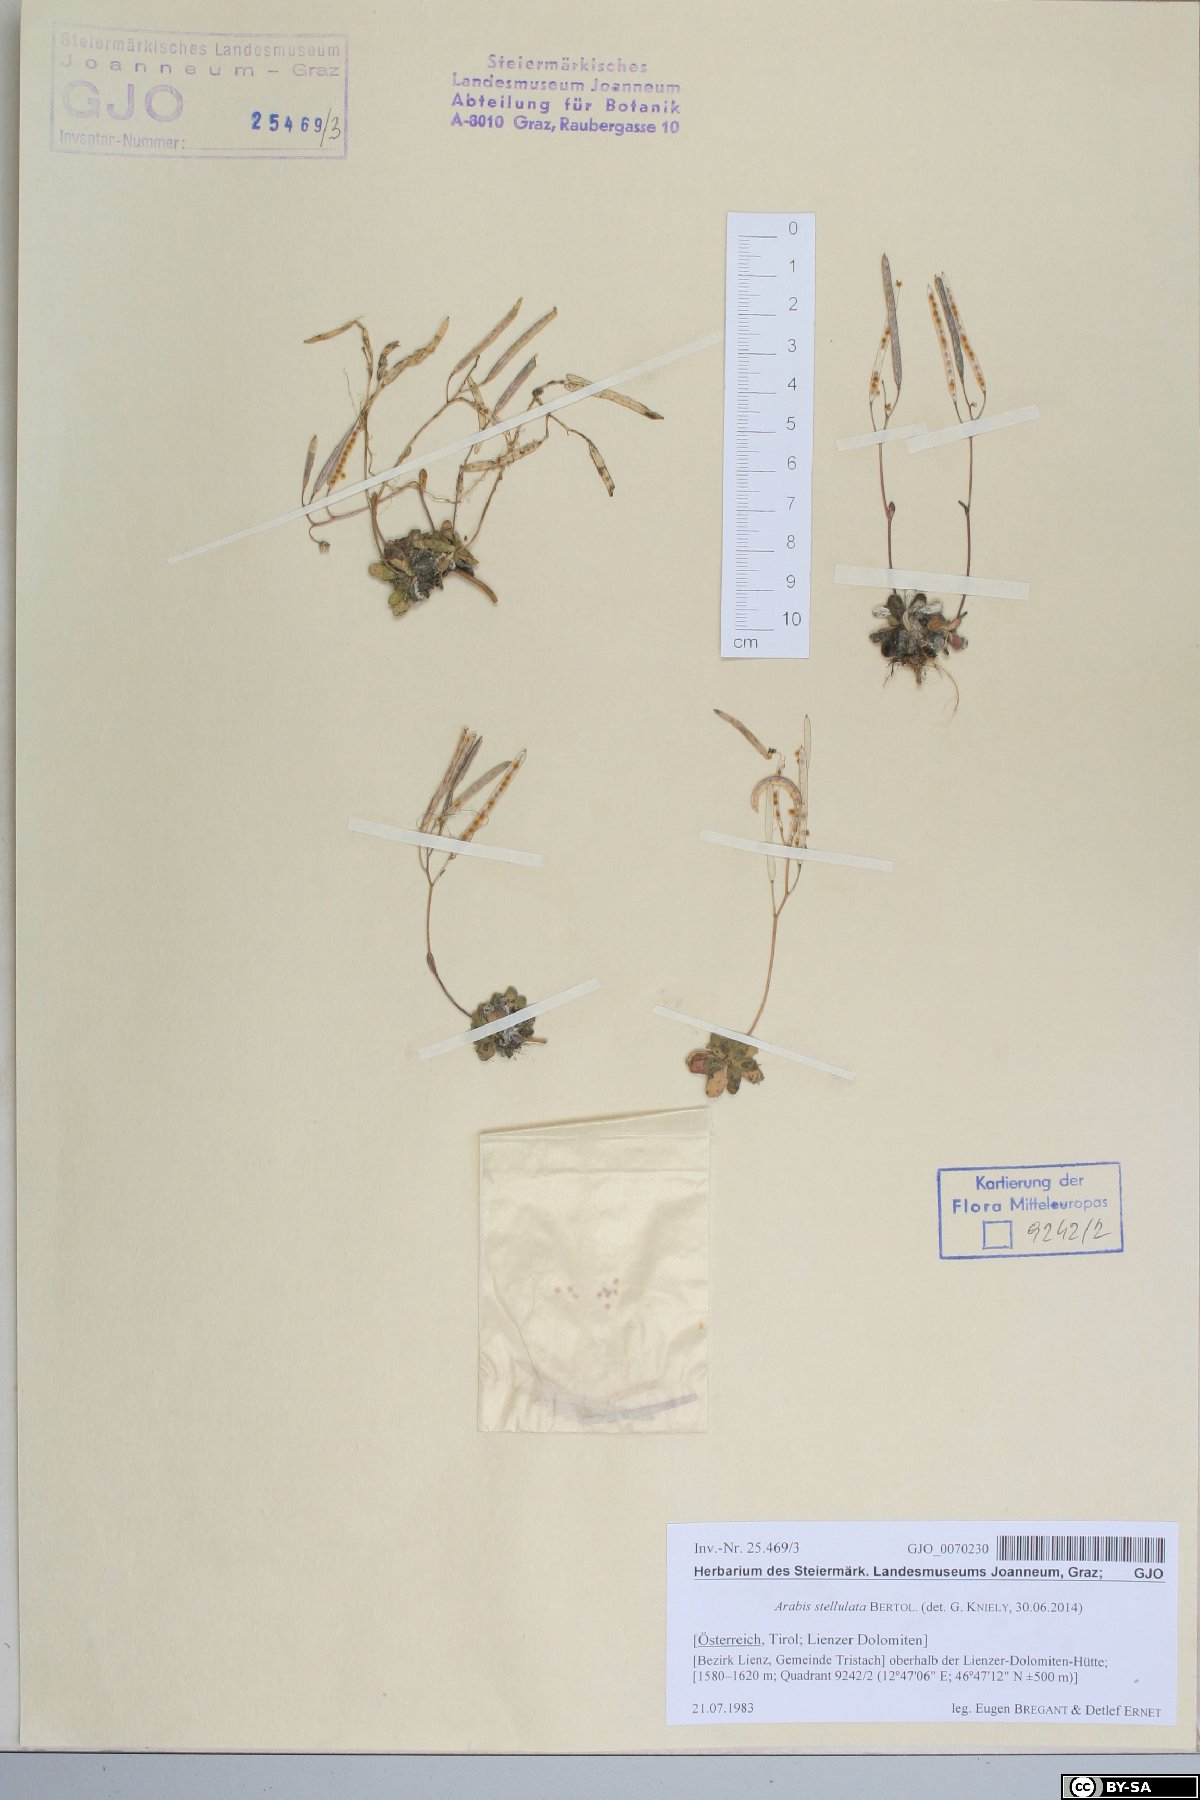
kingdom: Plantae
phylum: Tracheophyta
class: Magnoliopsida
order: Brassicales
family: Brassicaceae
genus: Arabis
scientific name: Arabis stellulata
